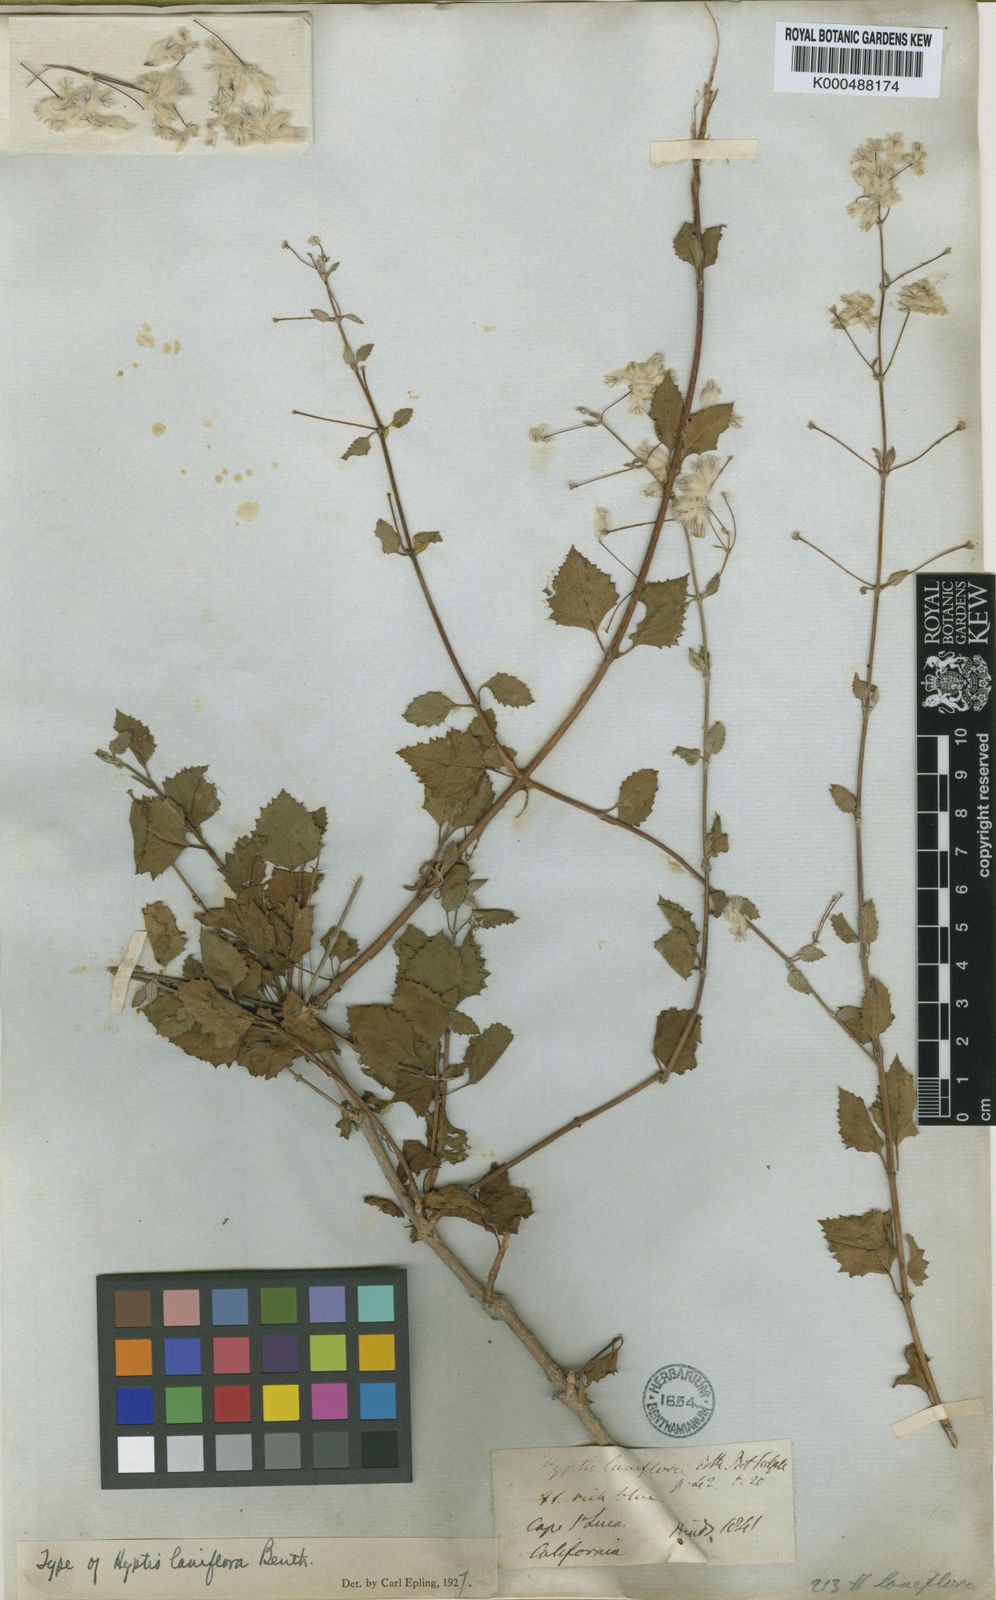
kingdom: Plantae
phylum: Tracheophyta
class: Magnoliopsida
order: Lamiales
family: Lamiaceae
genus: Condea
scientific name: Condea laniflora
